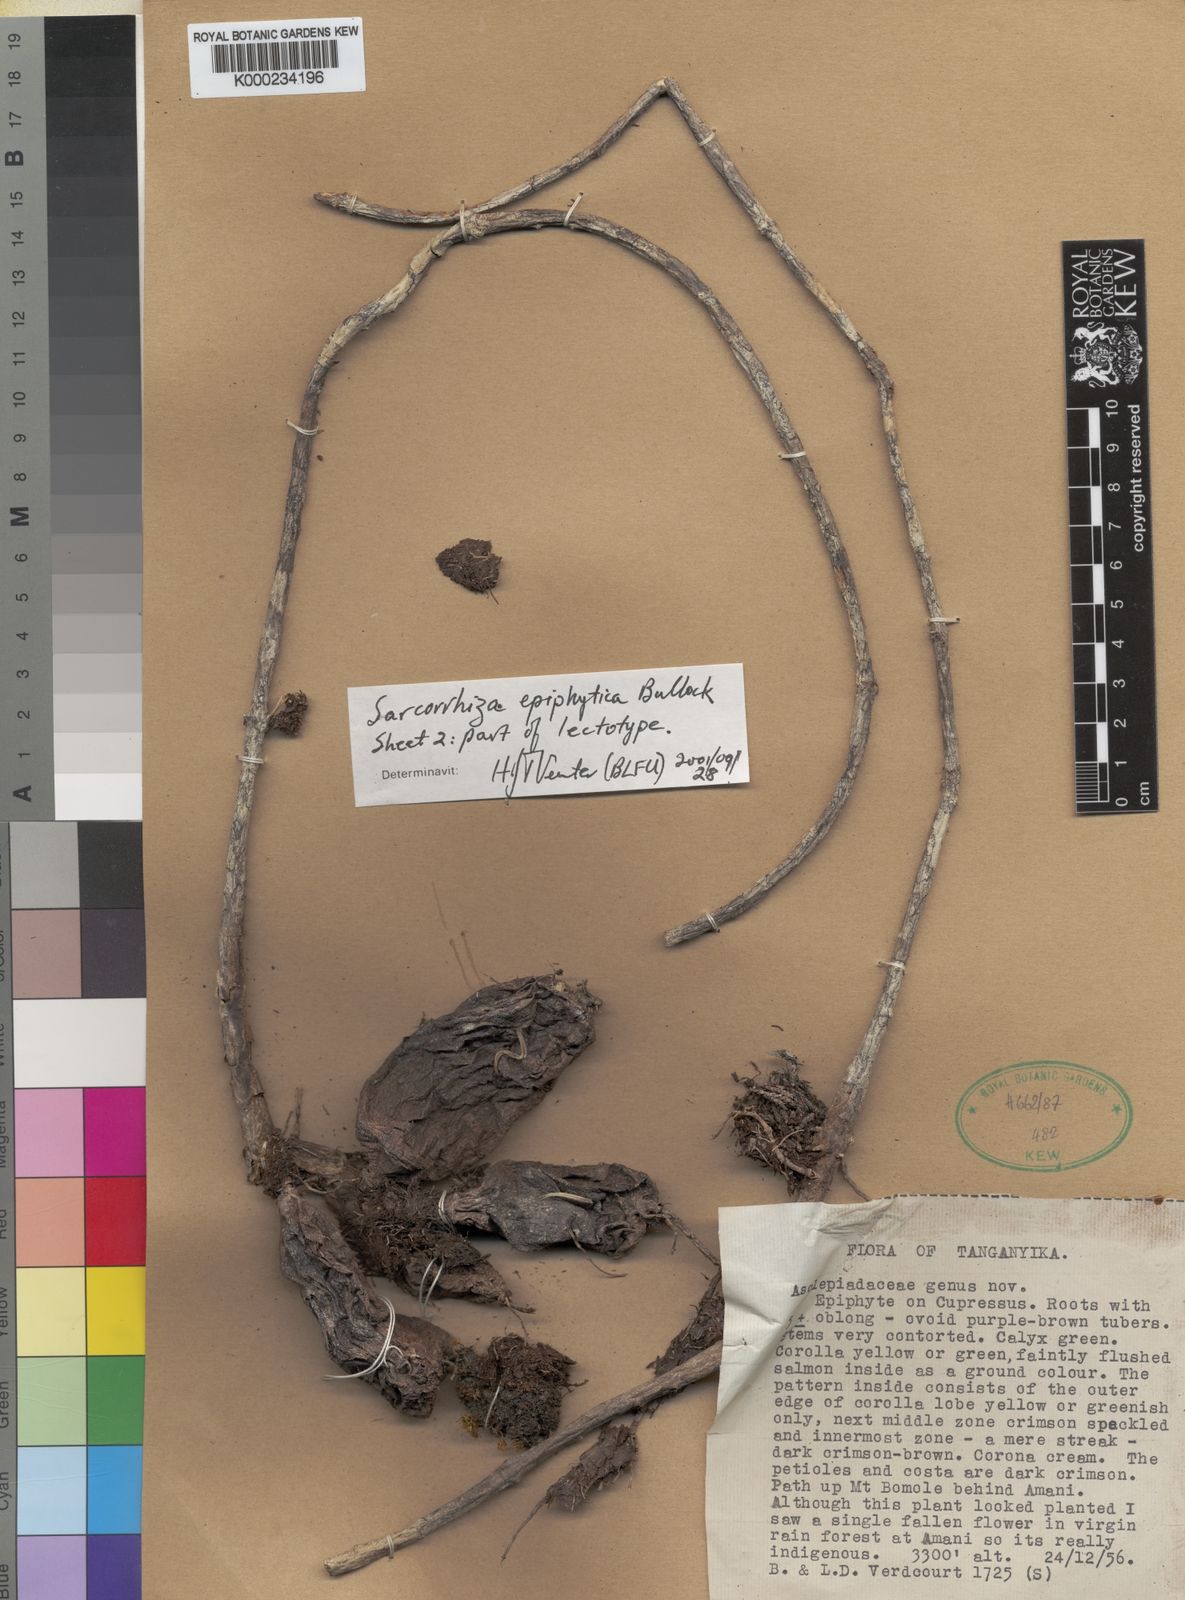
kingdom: Plantae
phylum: Tracheophyta
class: Magnoliopsida
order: Gentianales
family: Apocynaceae
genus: Sarcorrhiza
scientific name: Sarcorrhiza epiphytica
